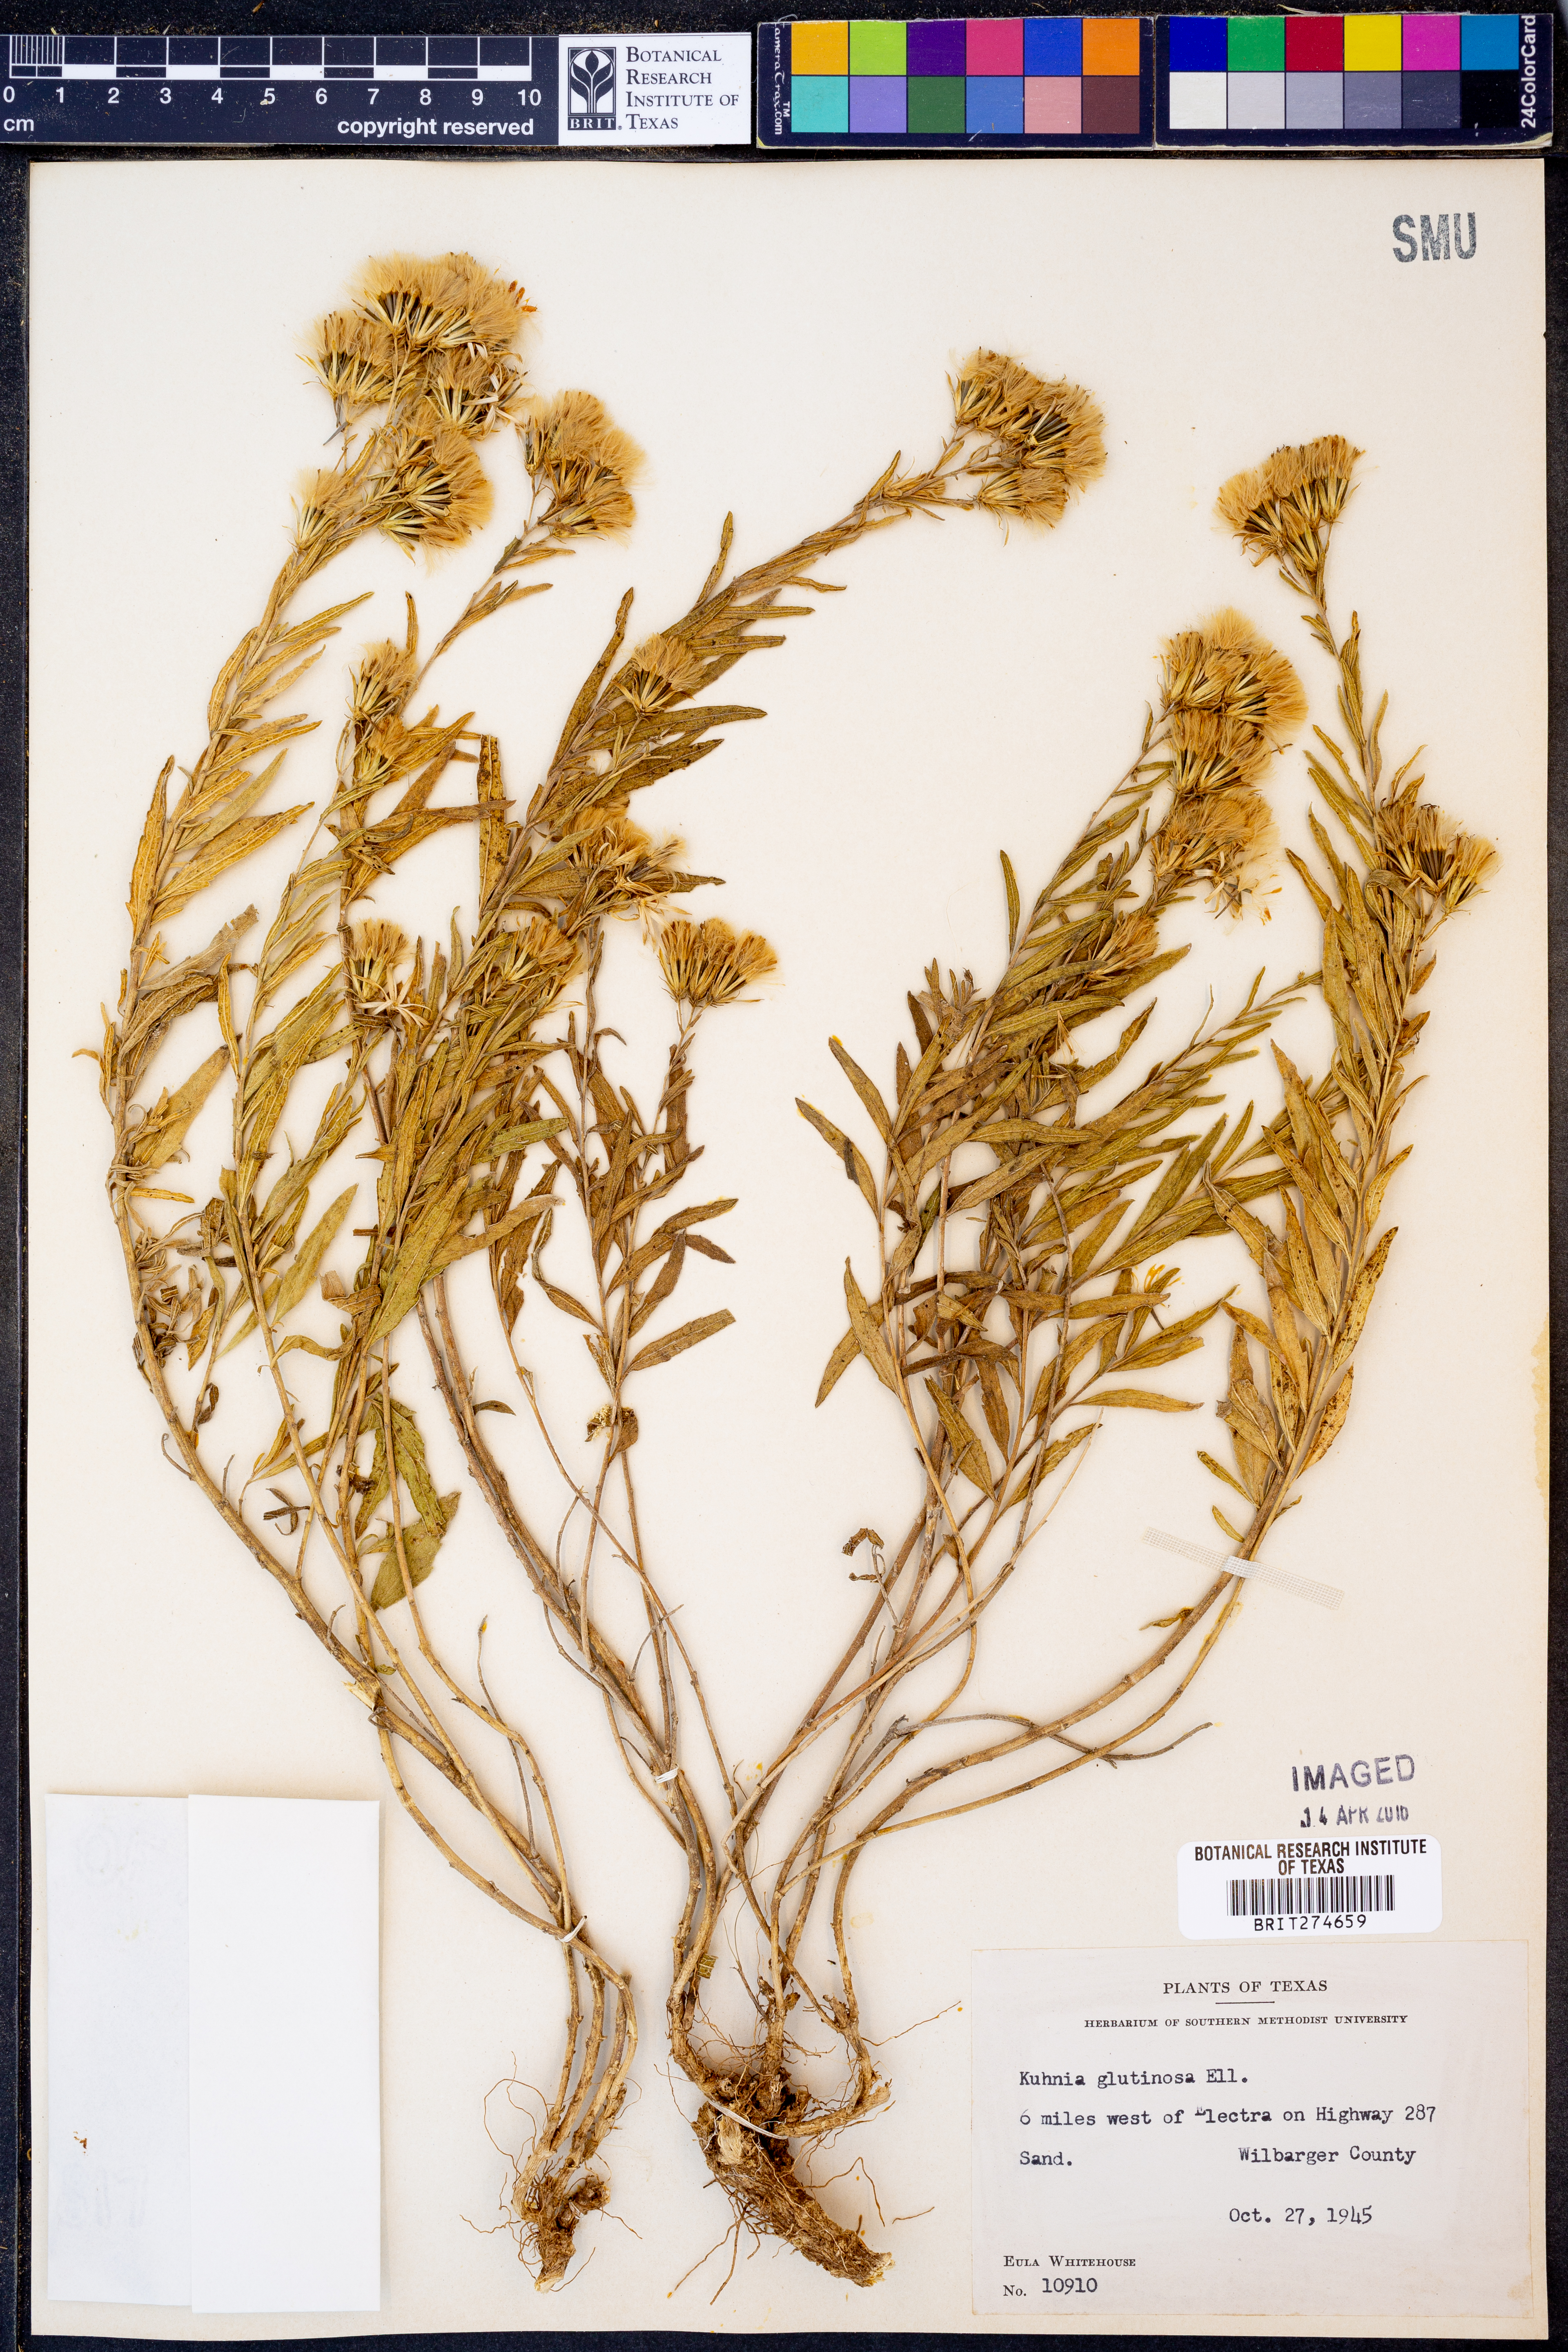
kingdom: Plantae
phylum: Tracheophyta
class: Magnoliopsida
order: Asterales
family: Asteraceae
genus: Brickellia
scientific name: Brickellia eupatorioides
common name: False boneset
